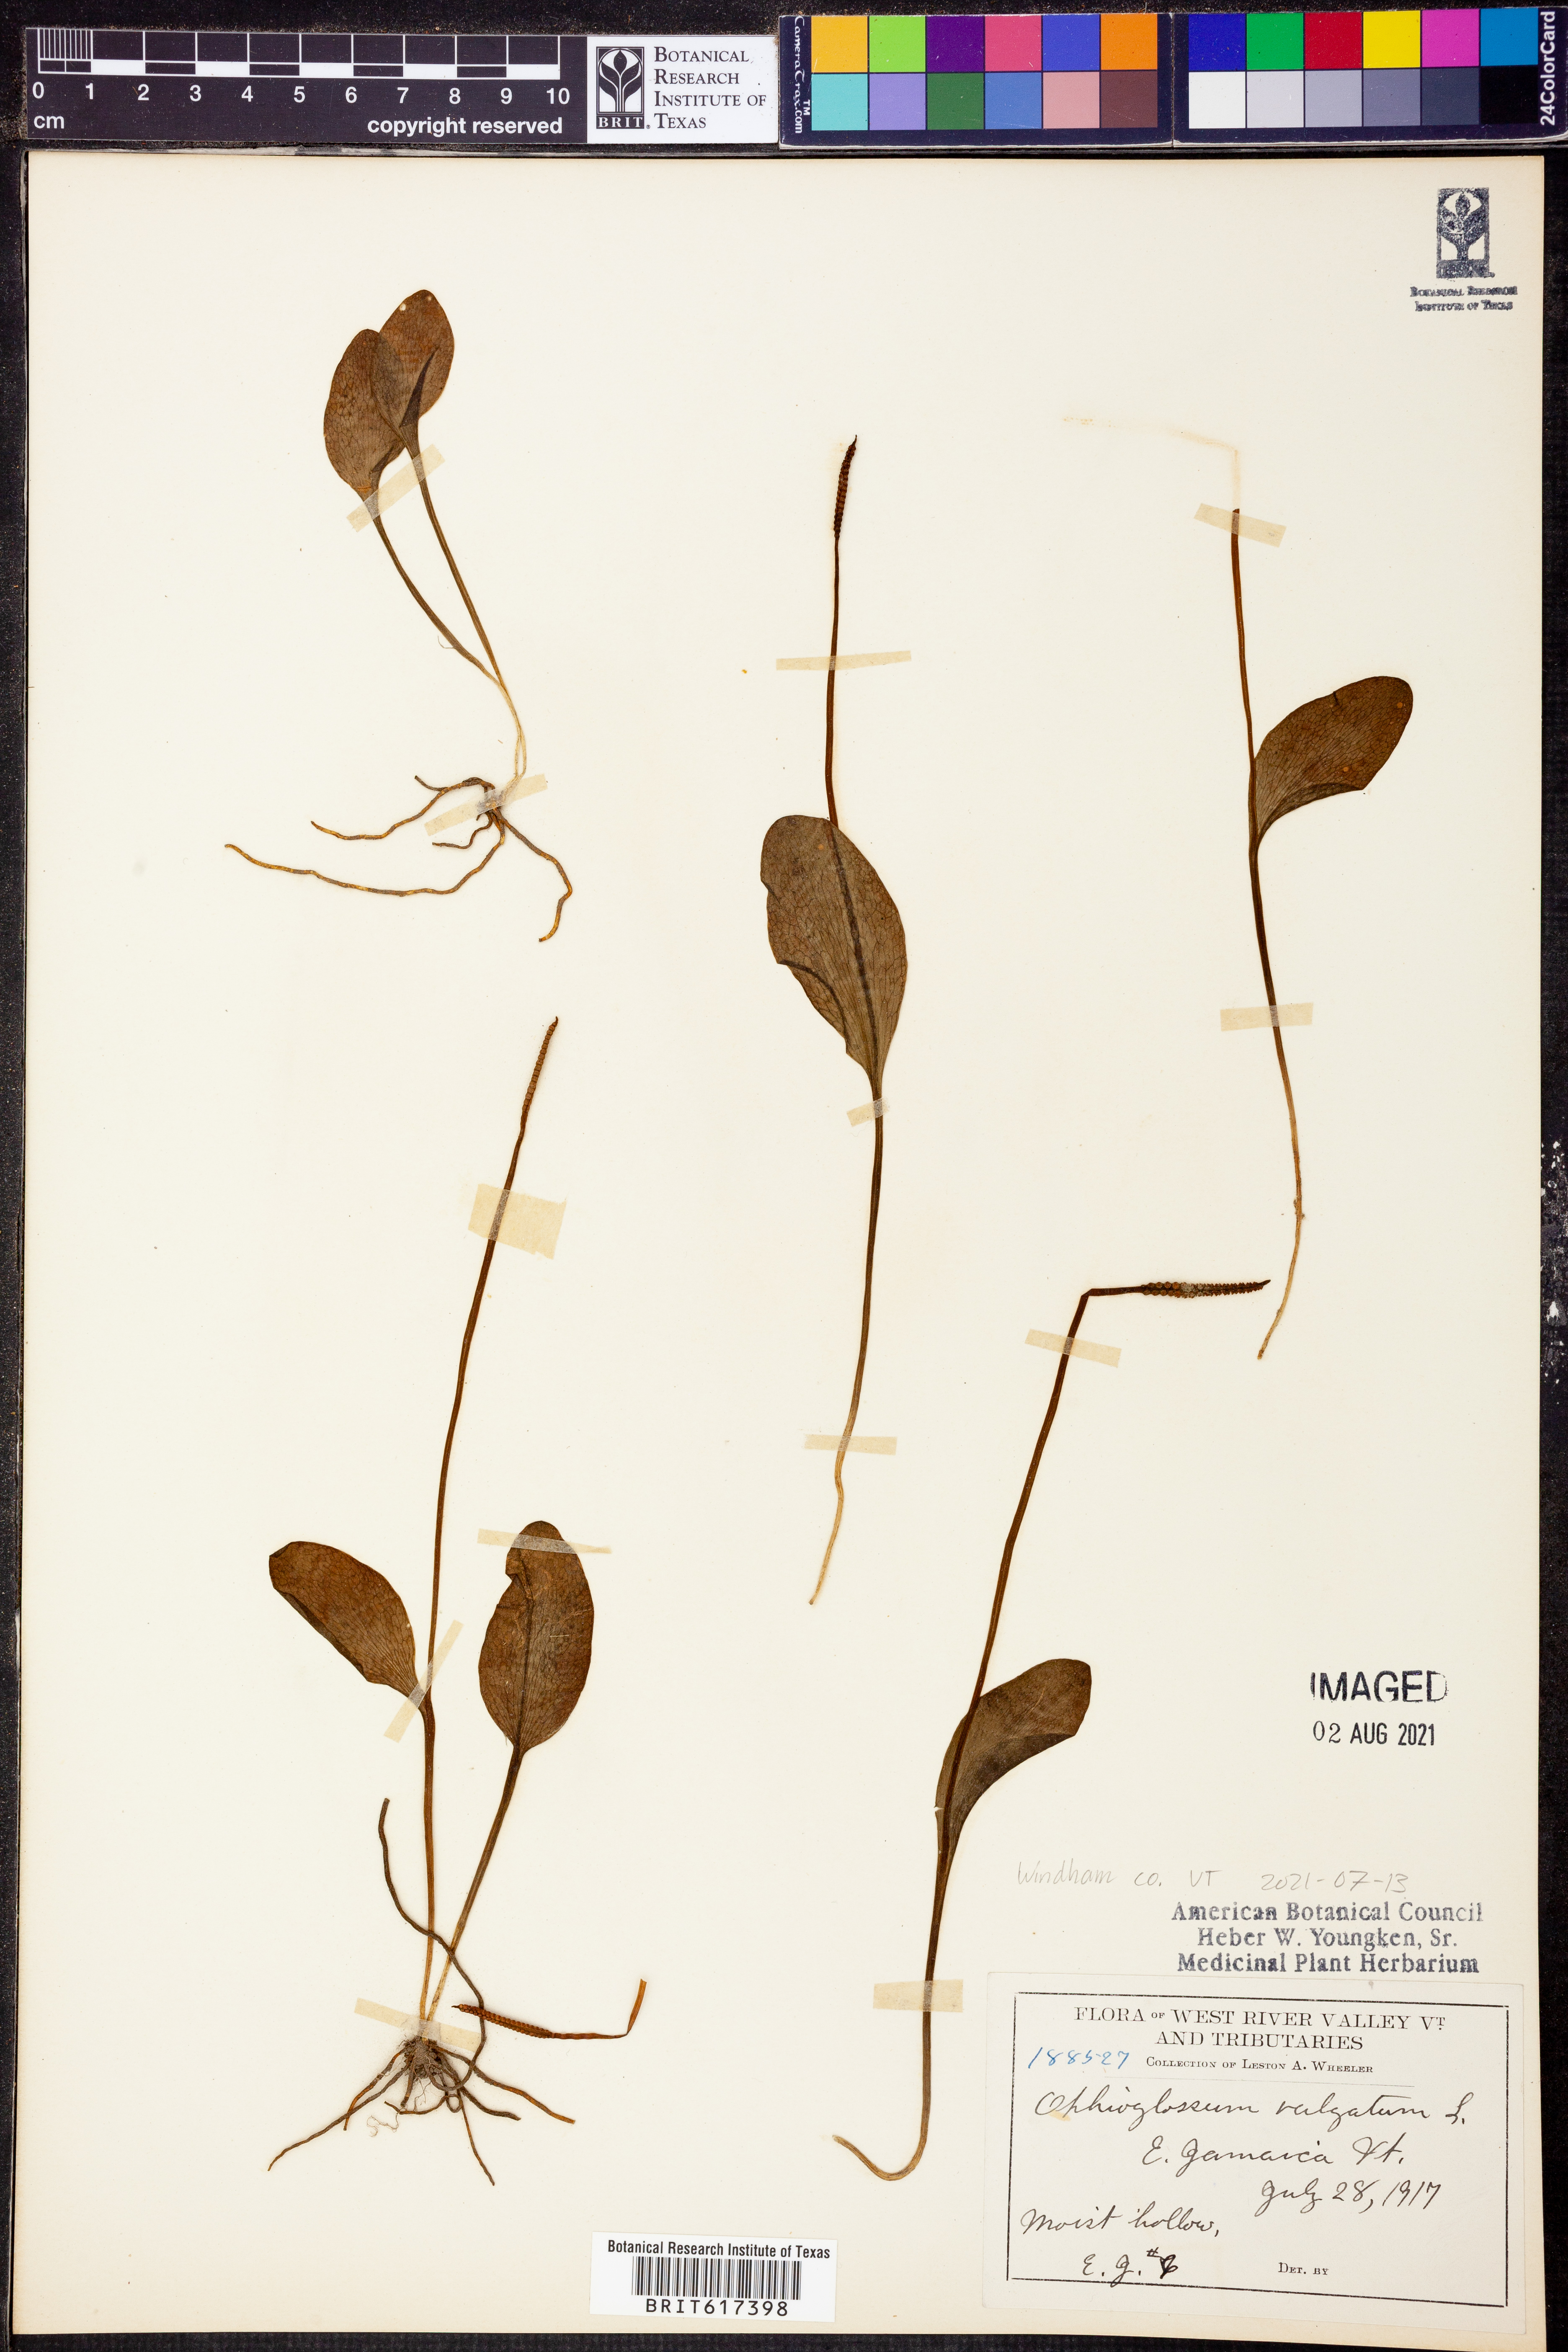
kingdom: Plantae
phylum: Tracheophyta
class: Polypodiopsida
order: Ophioglossales
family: Ophioglossaceae
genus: Ophioglossum
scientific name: Ophioglossum vulgatum
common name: Adder's-tongue
